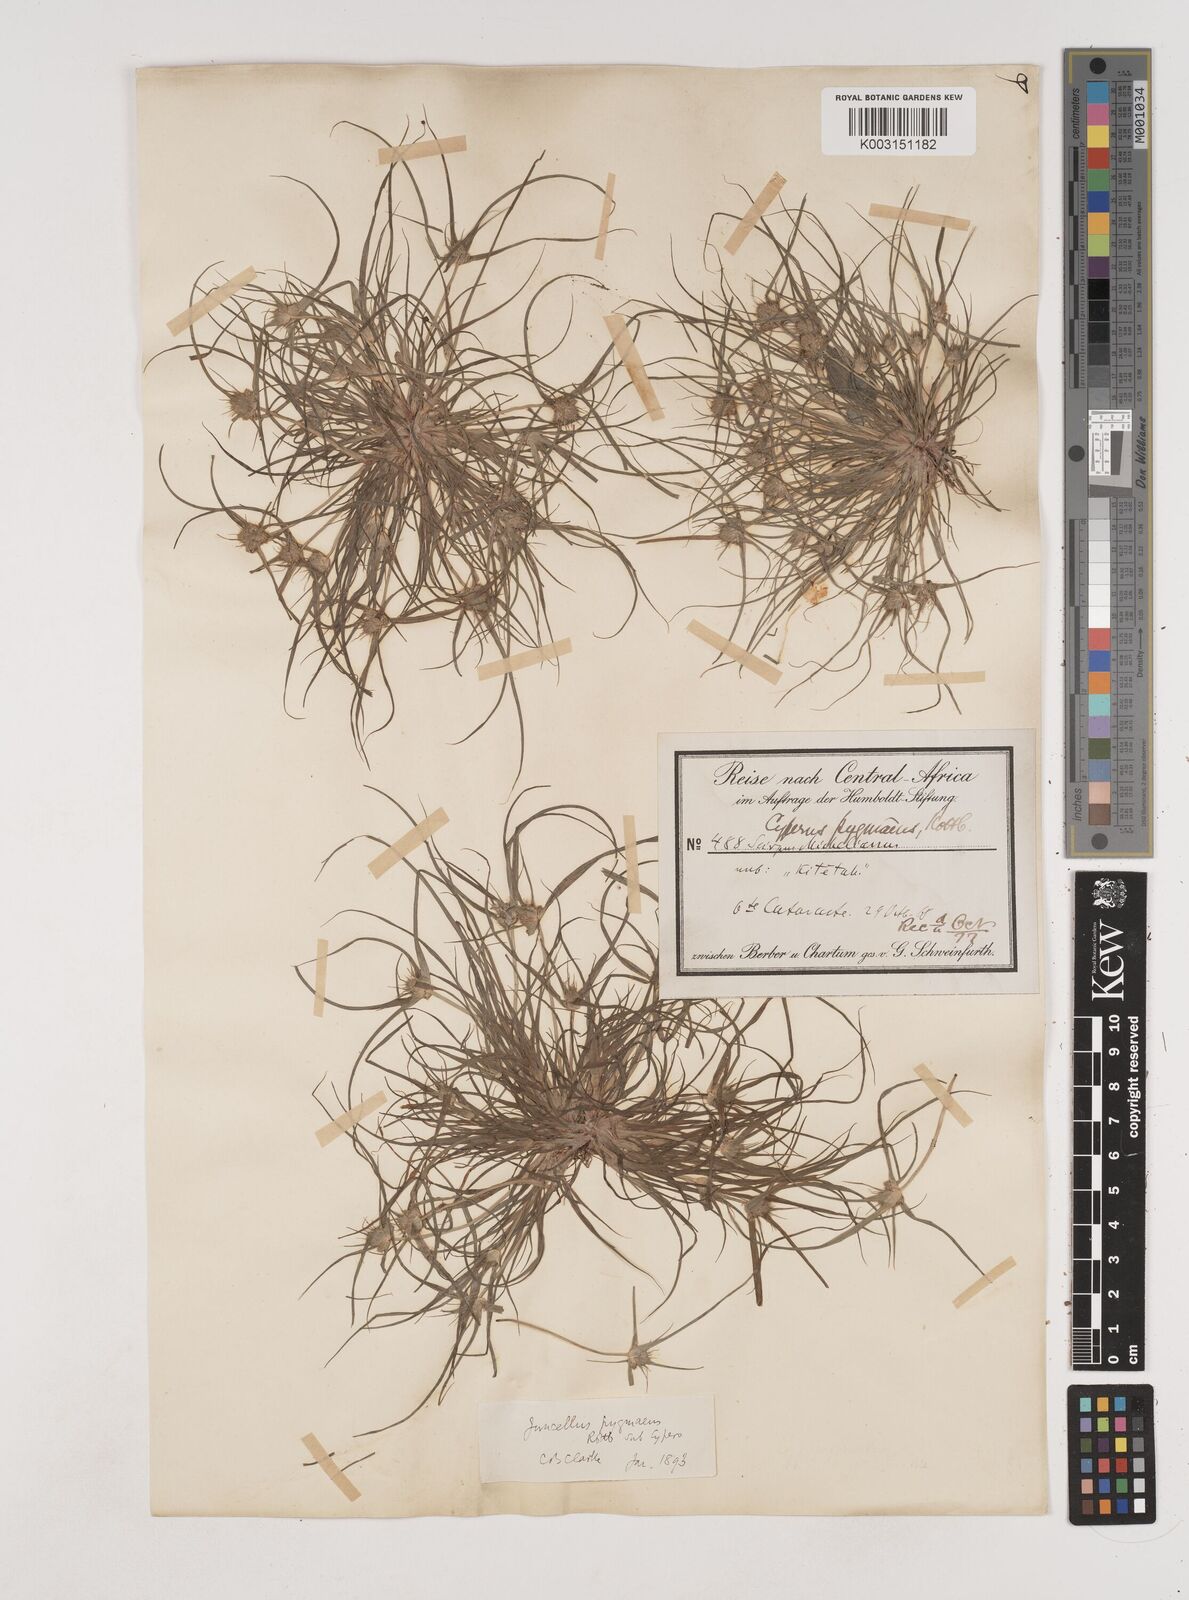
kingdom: Plantae
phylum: Tracheophyta
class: Liliopsida
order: Poales
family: Cyperaceae
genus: Cyperus
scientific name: Cyperus michelianus
